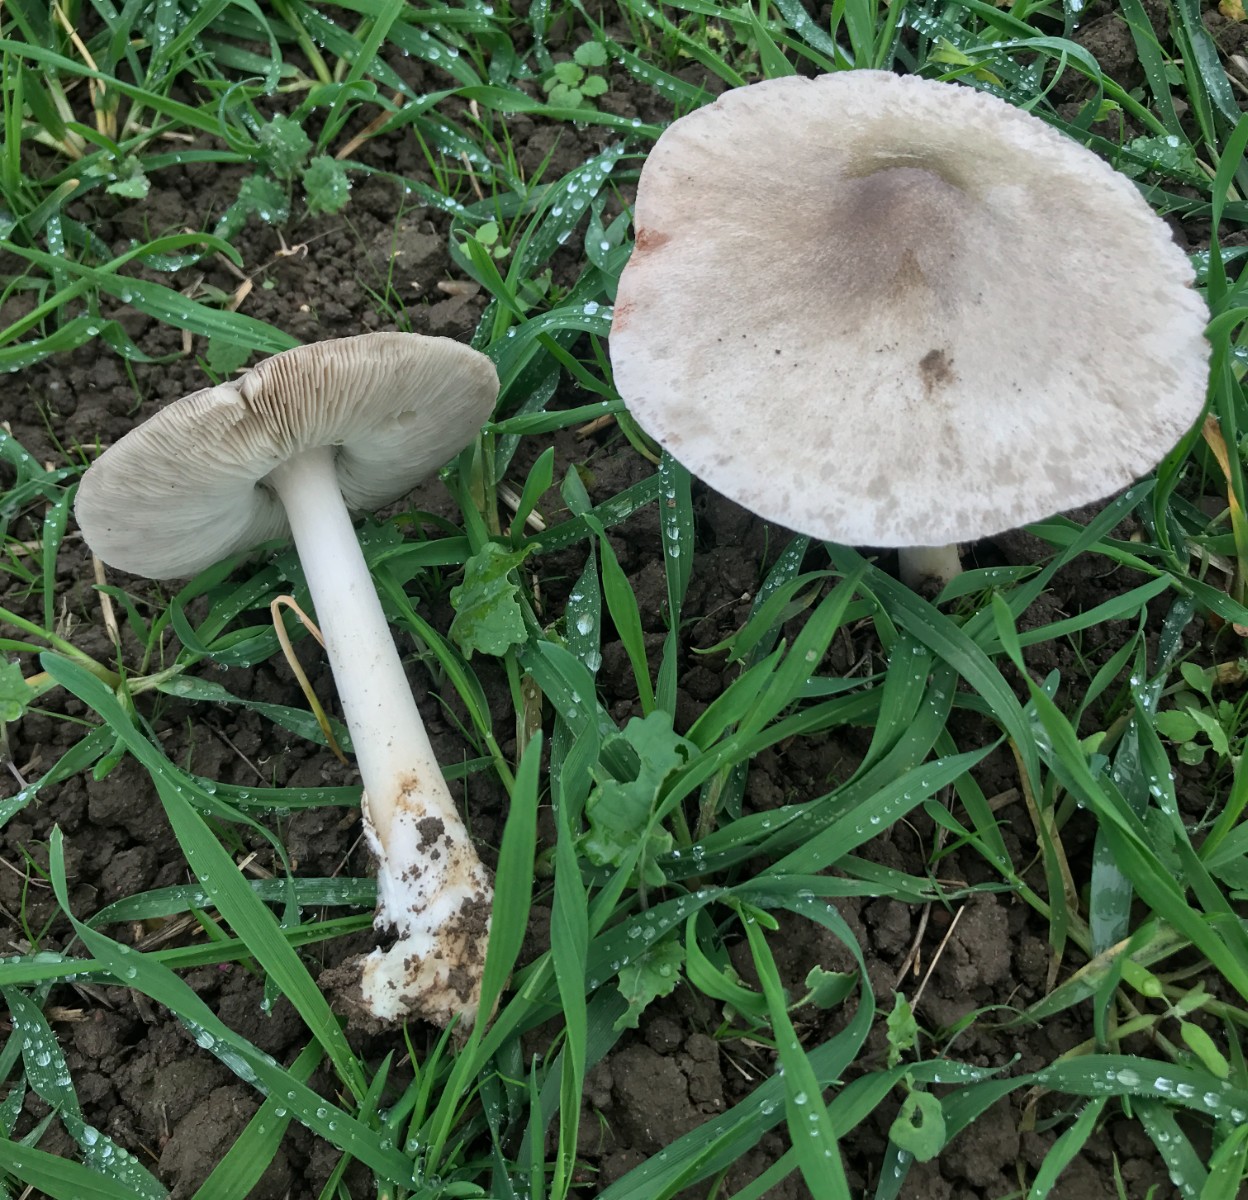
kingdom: Fungi
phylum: Basidiomycota
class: Agaricomycetes
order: Agaricales
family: Pluteaceae
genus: Volvopluteus
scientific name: Volvopluteus gloiocephalus
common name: høj posesvamp
